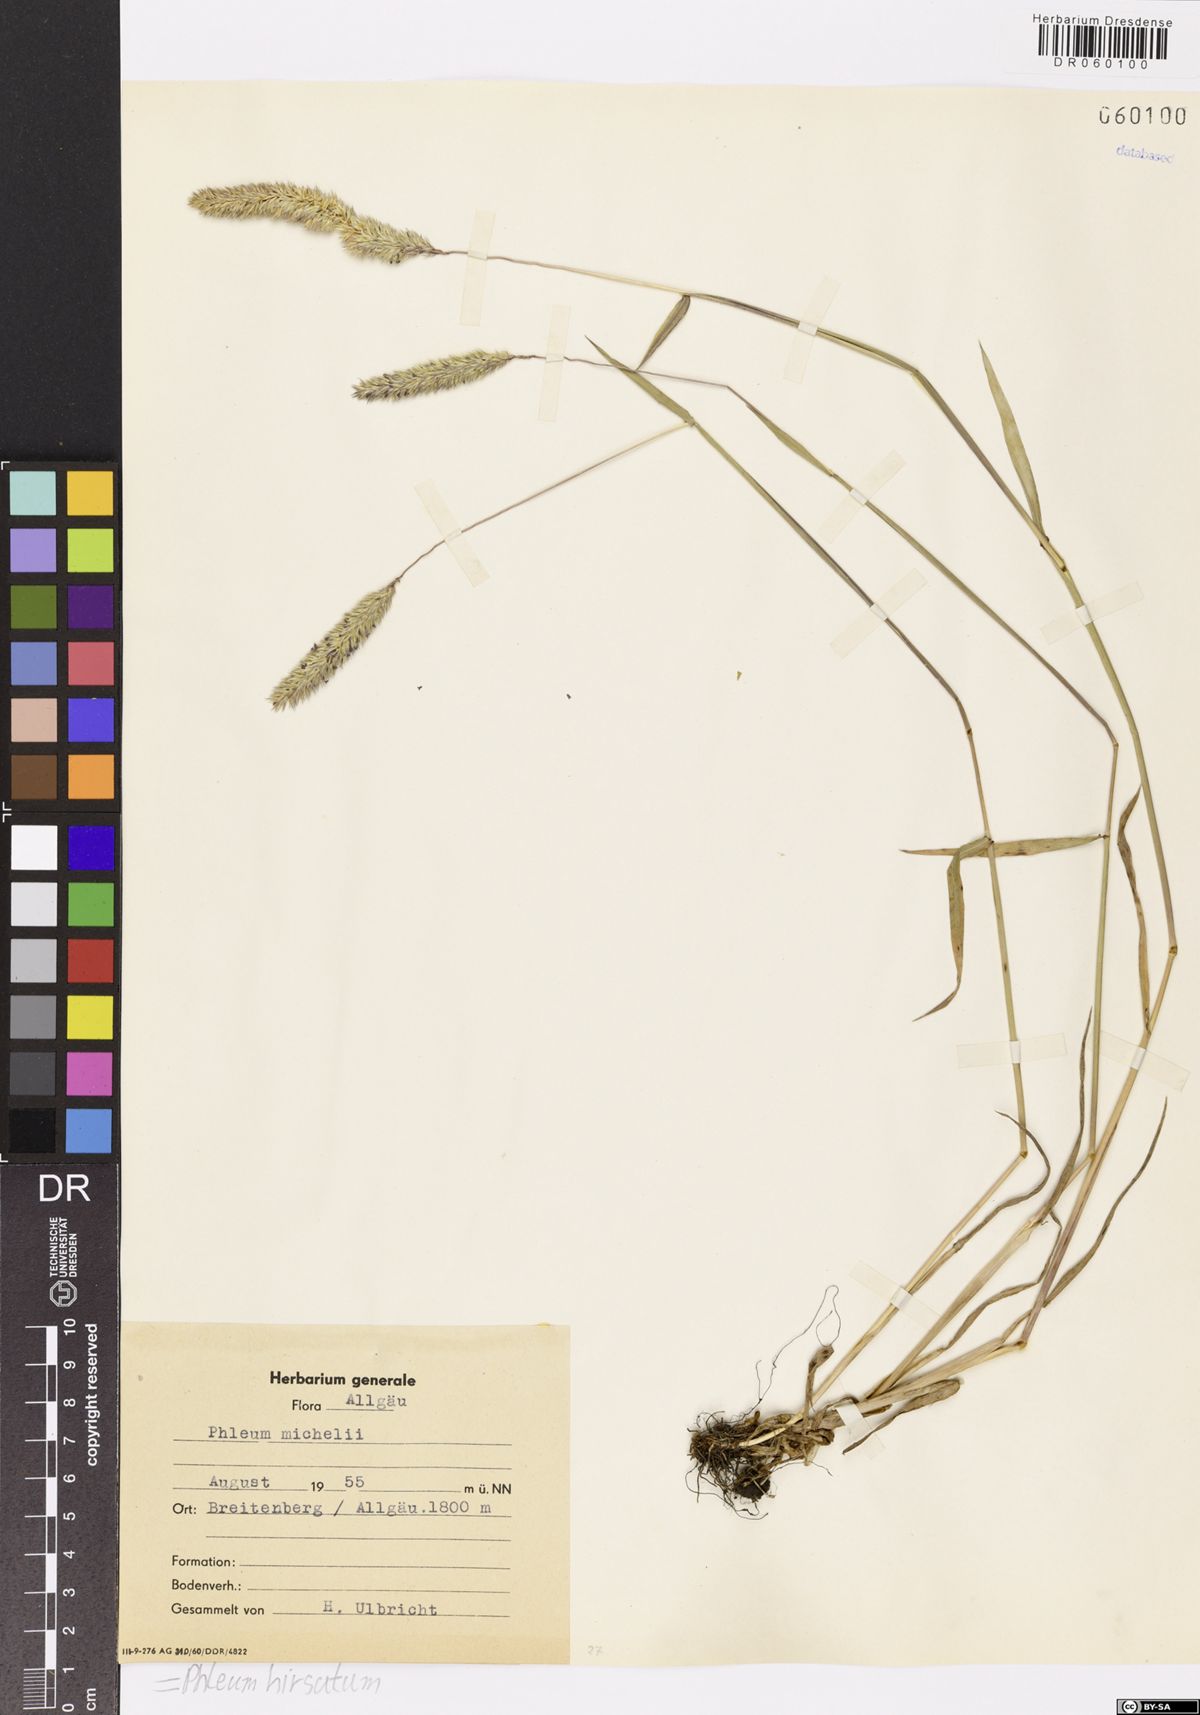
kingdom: Plantae
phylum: Tracheophyta
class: Liliopsida
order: Poales
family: Poaceae
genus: Phleum
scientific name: Phleum hirsutum
